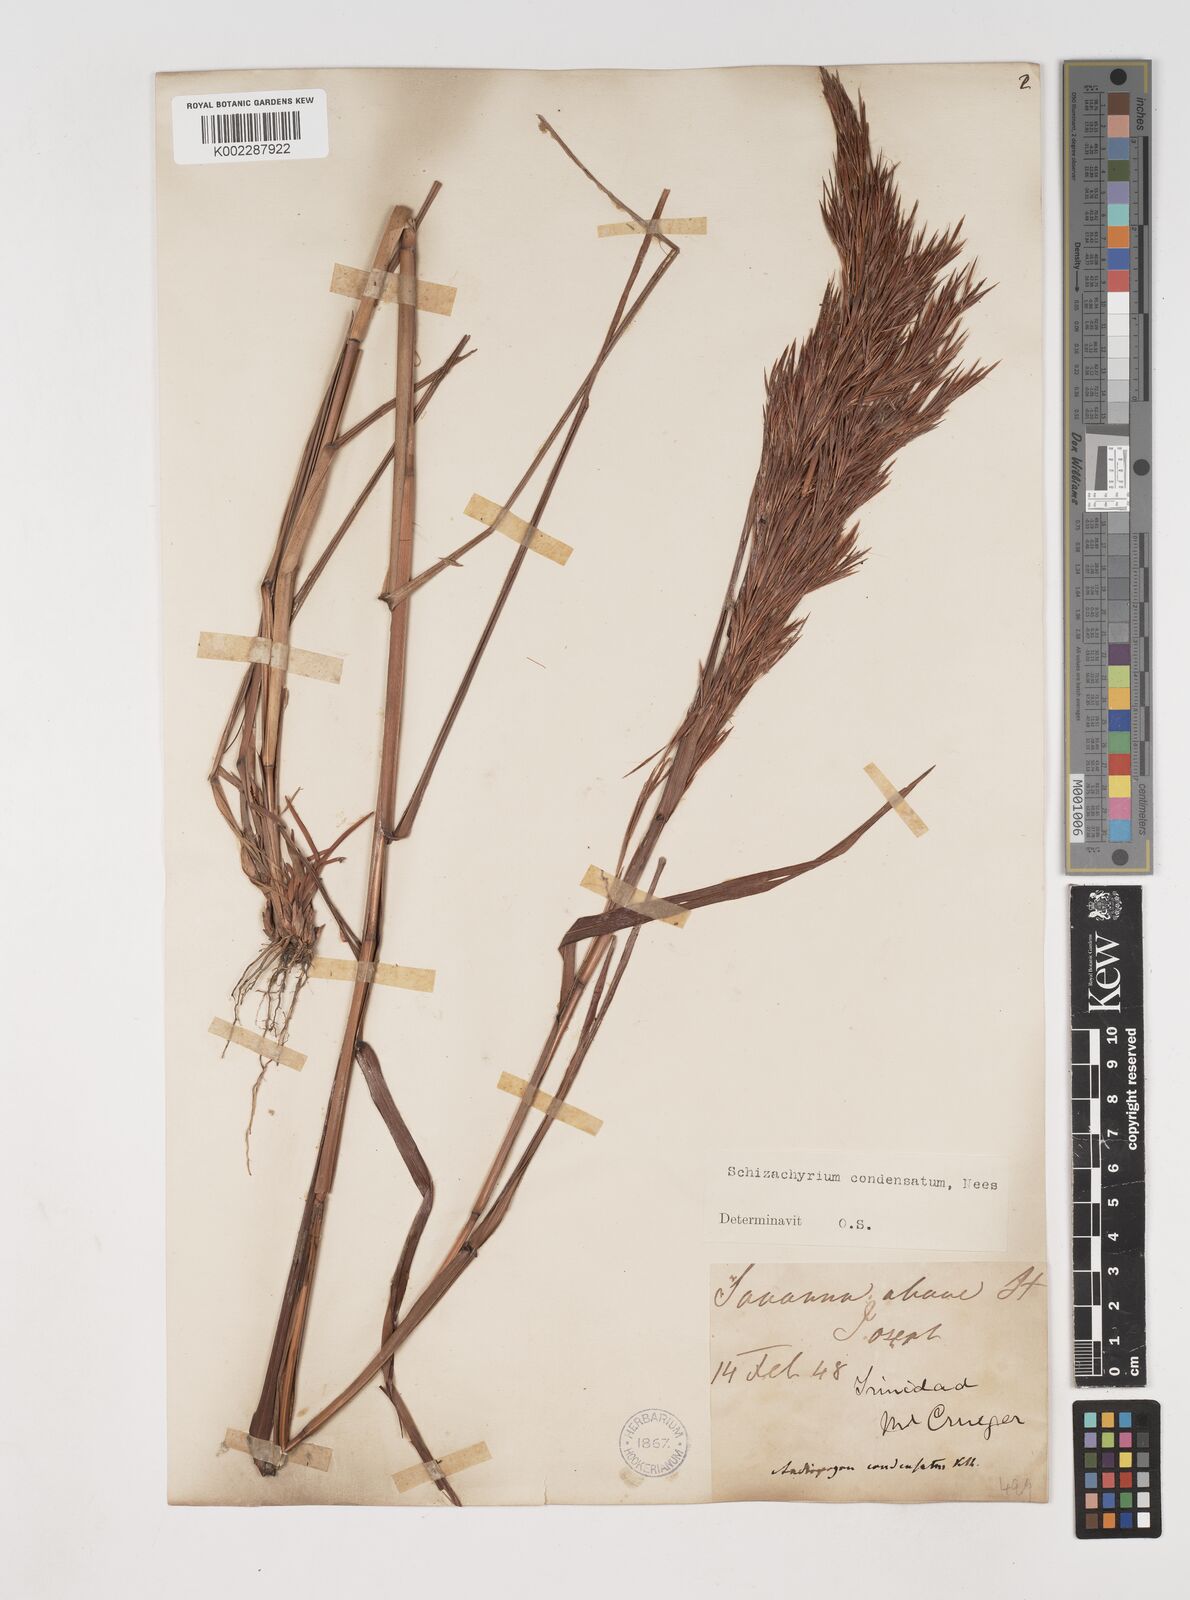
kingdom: Plantae
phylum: Tracheophyta
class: Liliopsida
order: Poales
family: Poaceae
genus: Schizachyrium
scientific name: Schizachyrium condensatum
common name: Bush beardgrass
